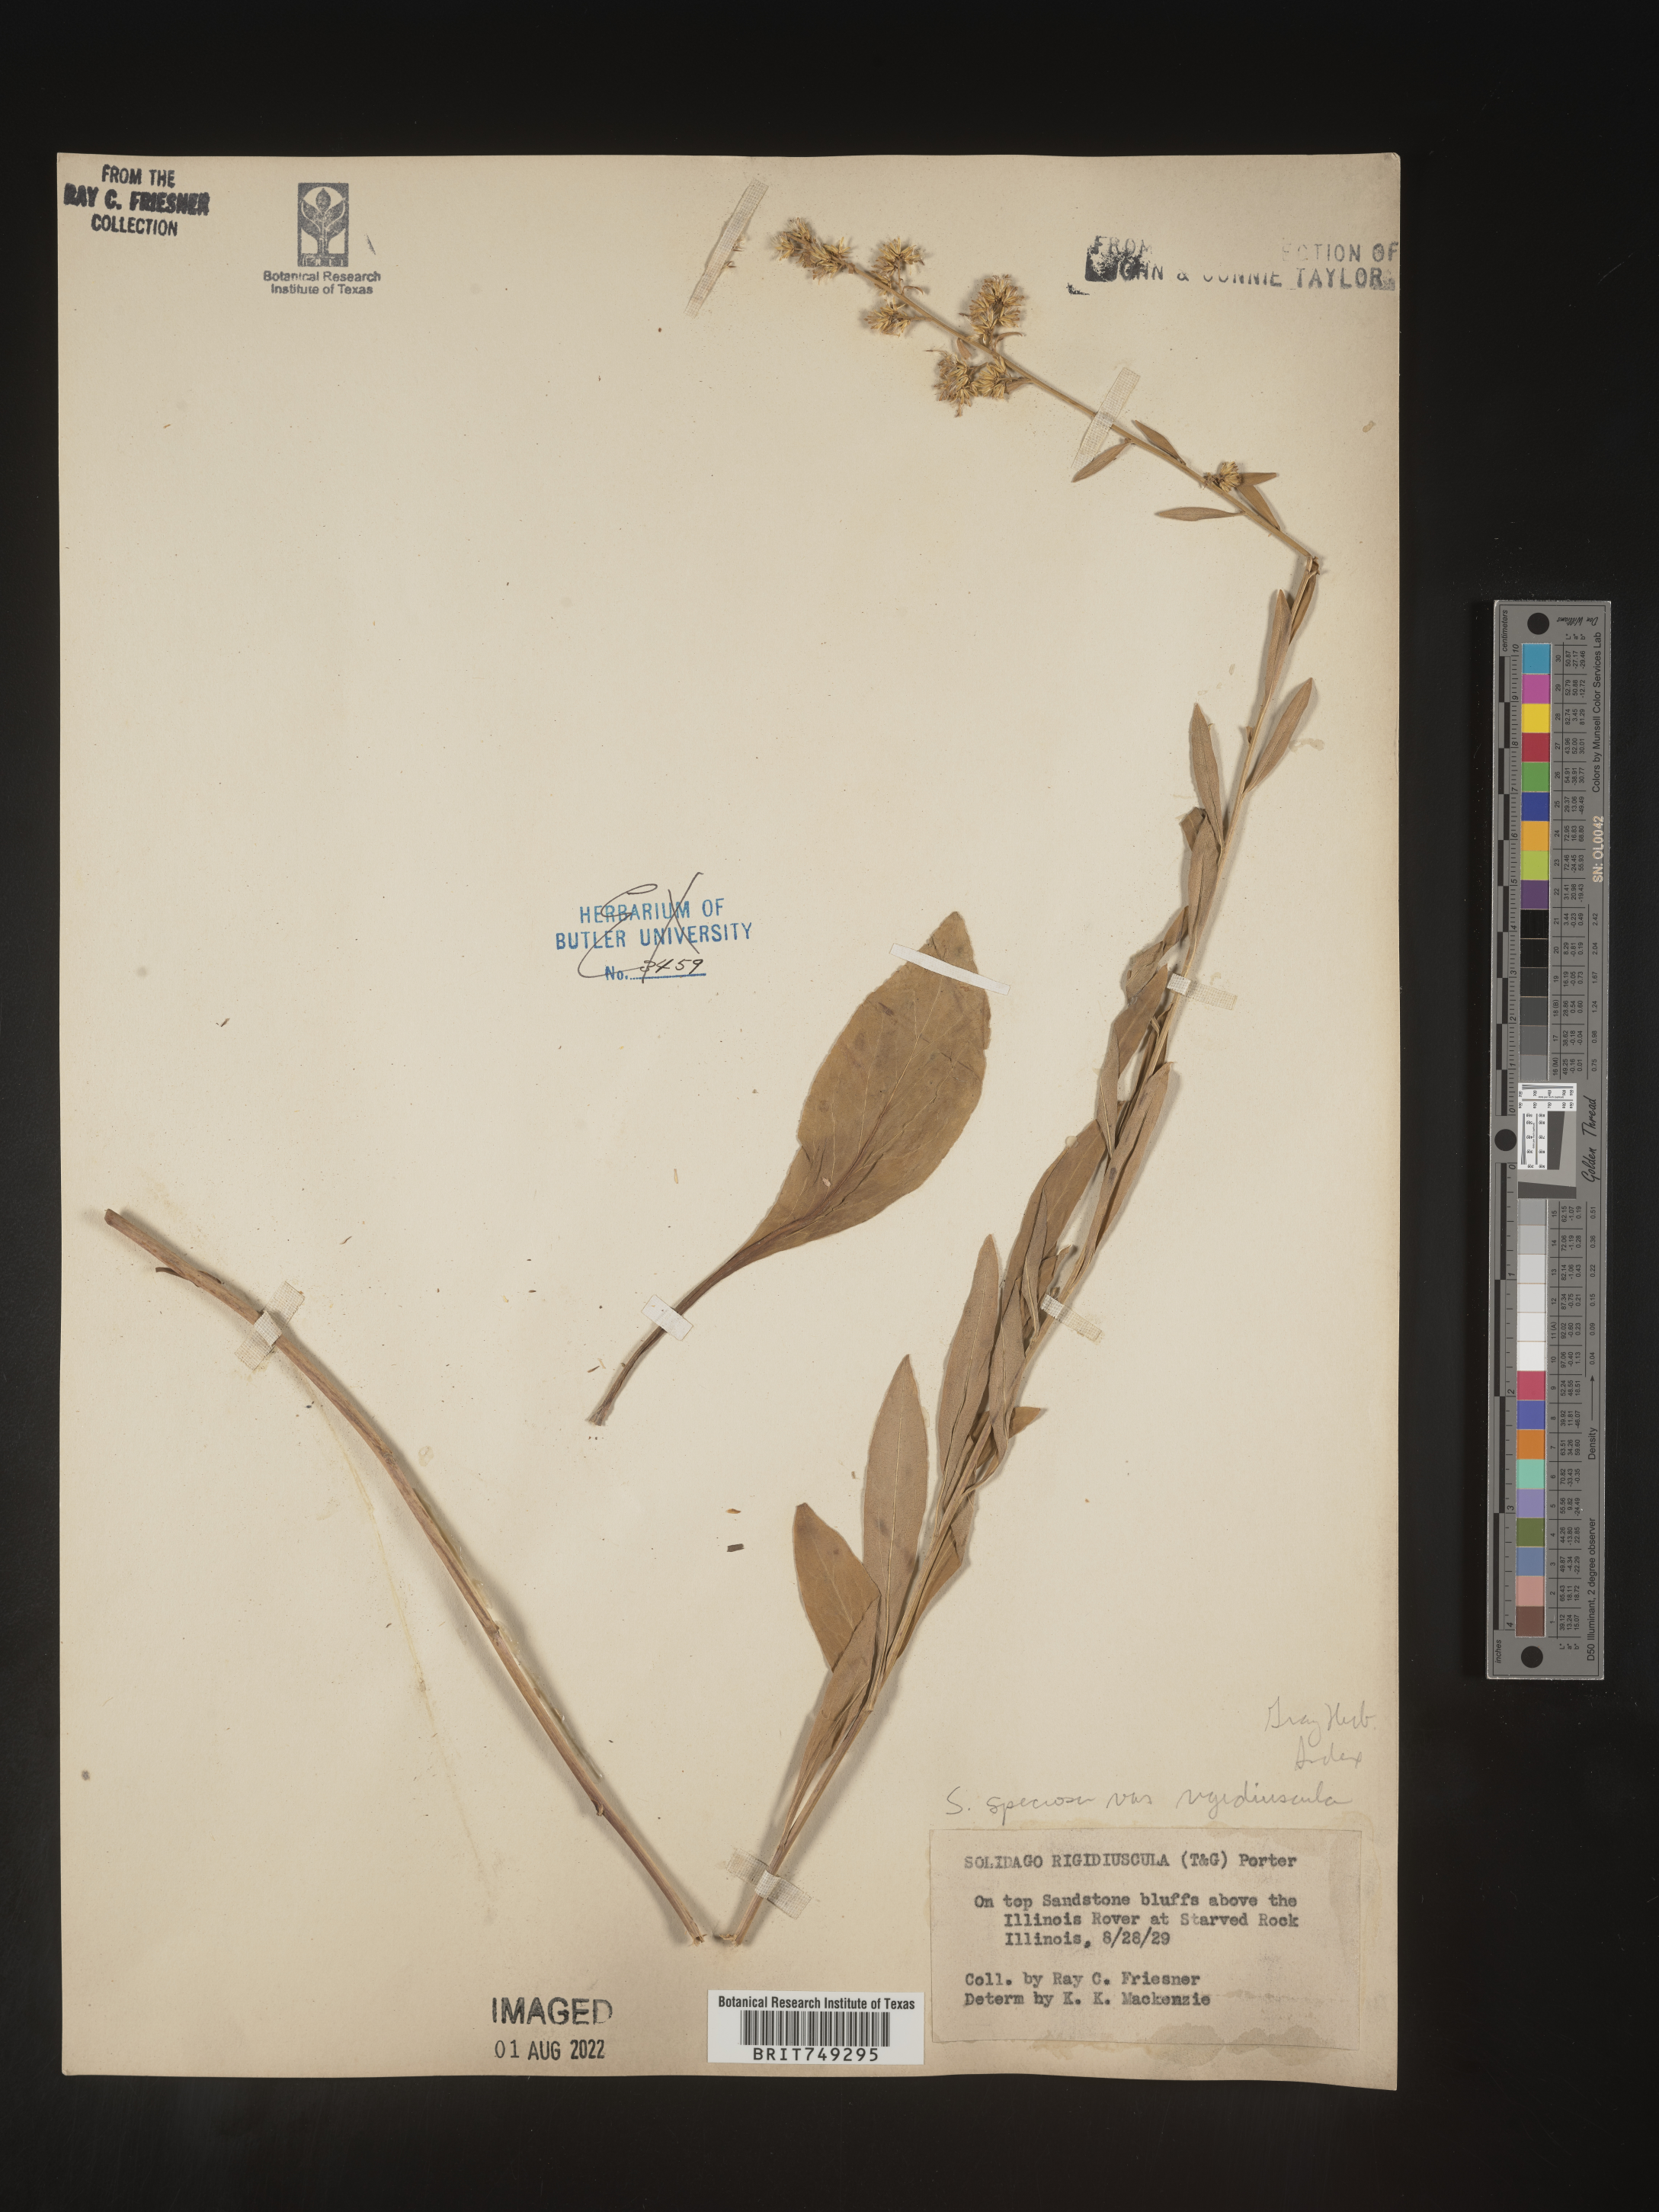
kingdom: Plantae
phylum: Tracheophyta
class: Magnoliopsida
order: Asterales
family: Asteraceae
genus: Solidago
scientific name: Solidago speciosa
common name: Showy goldenrod
